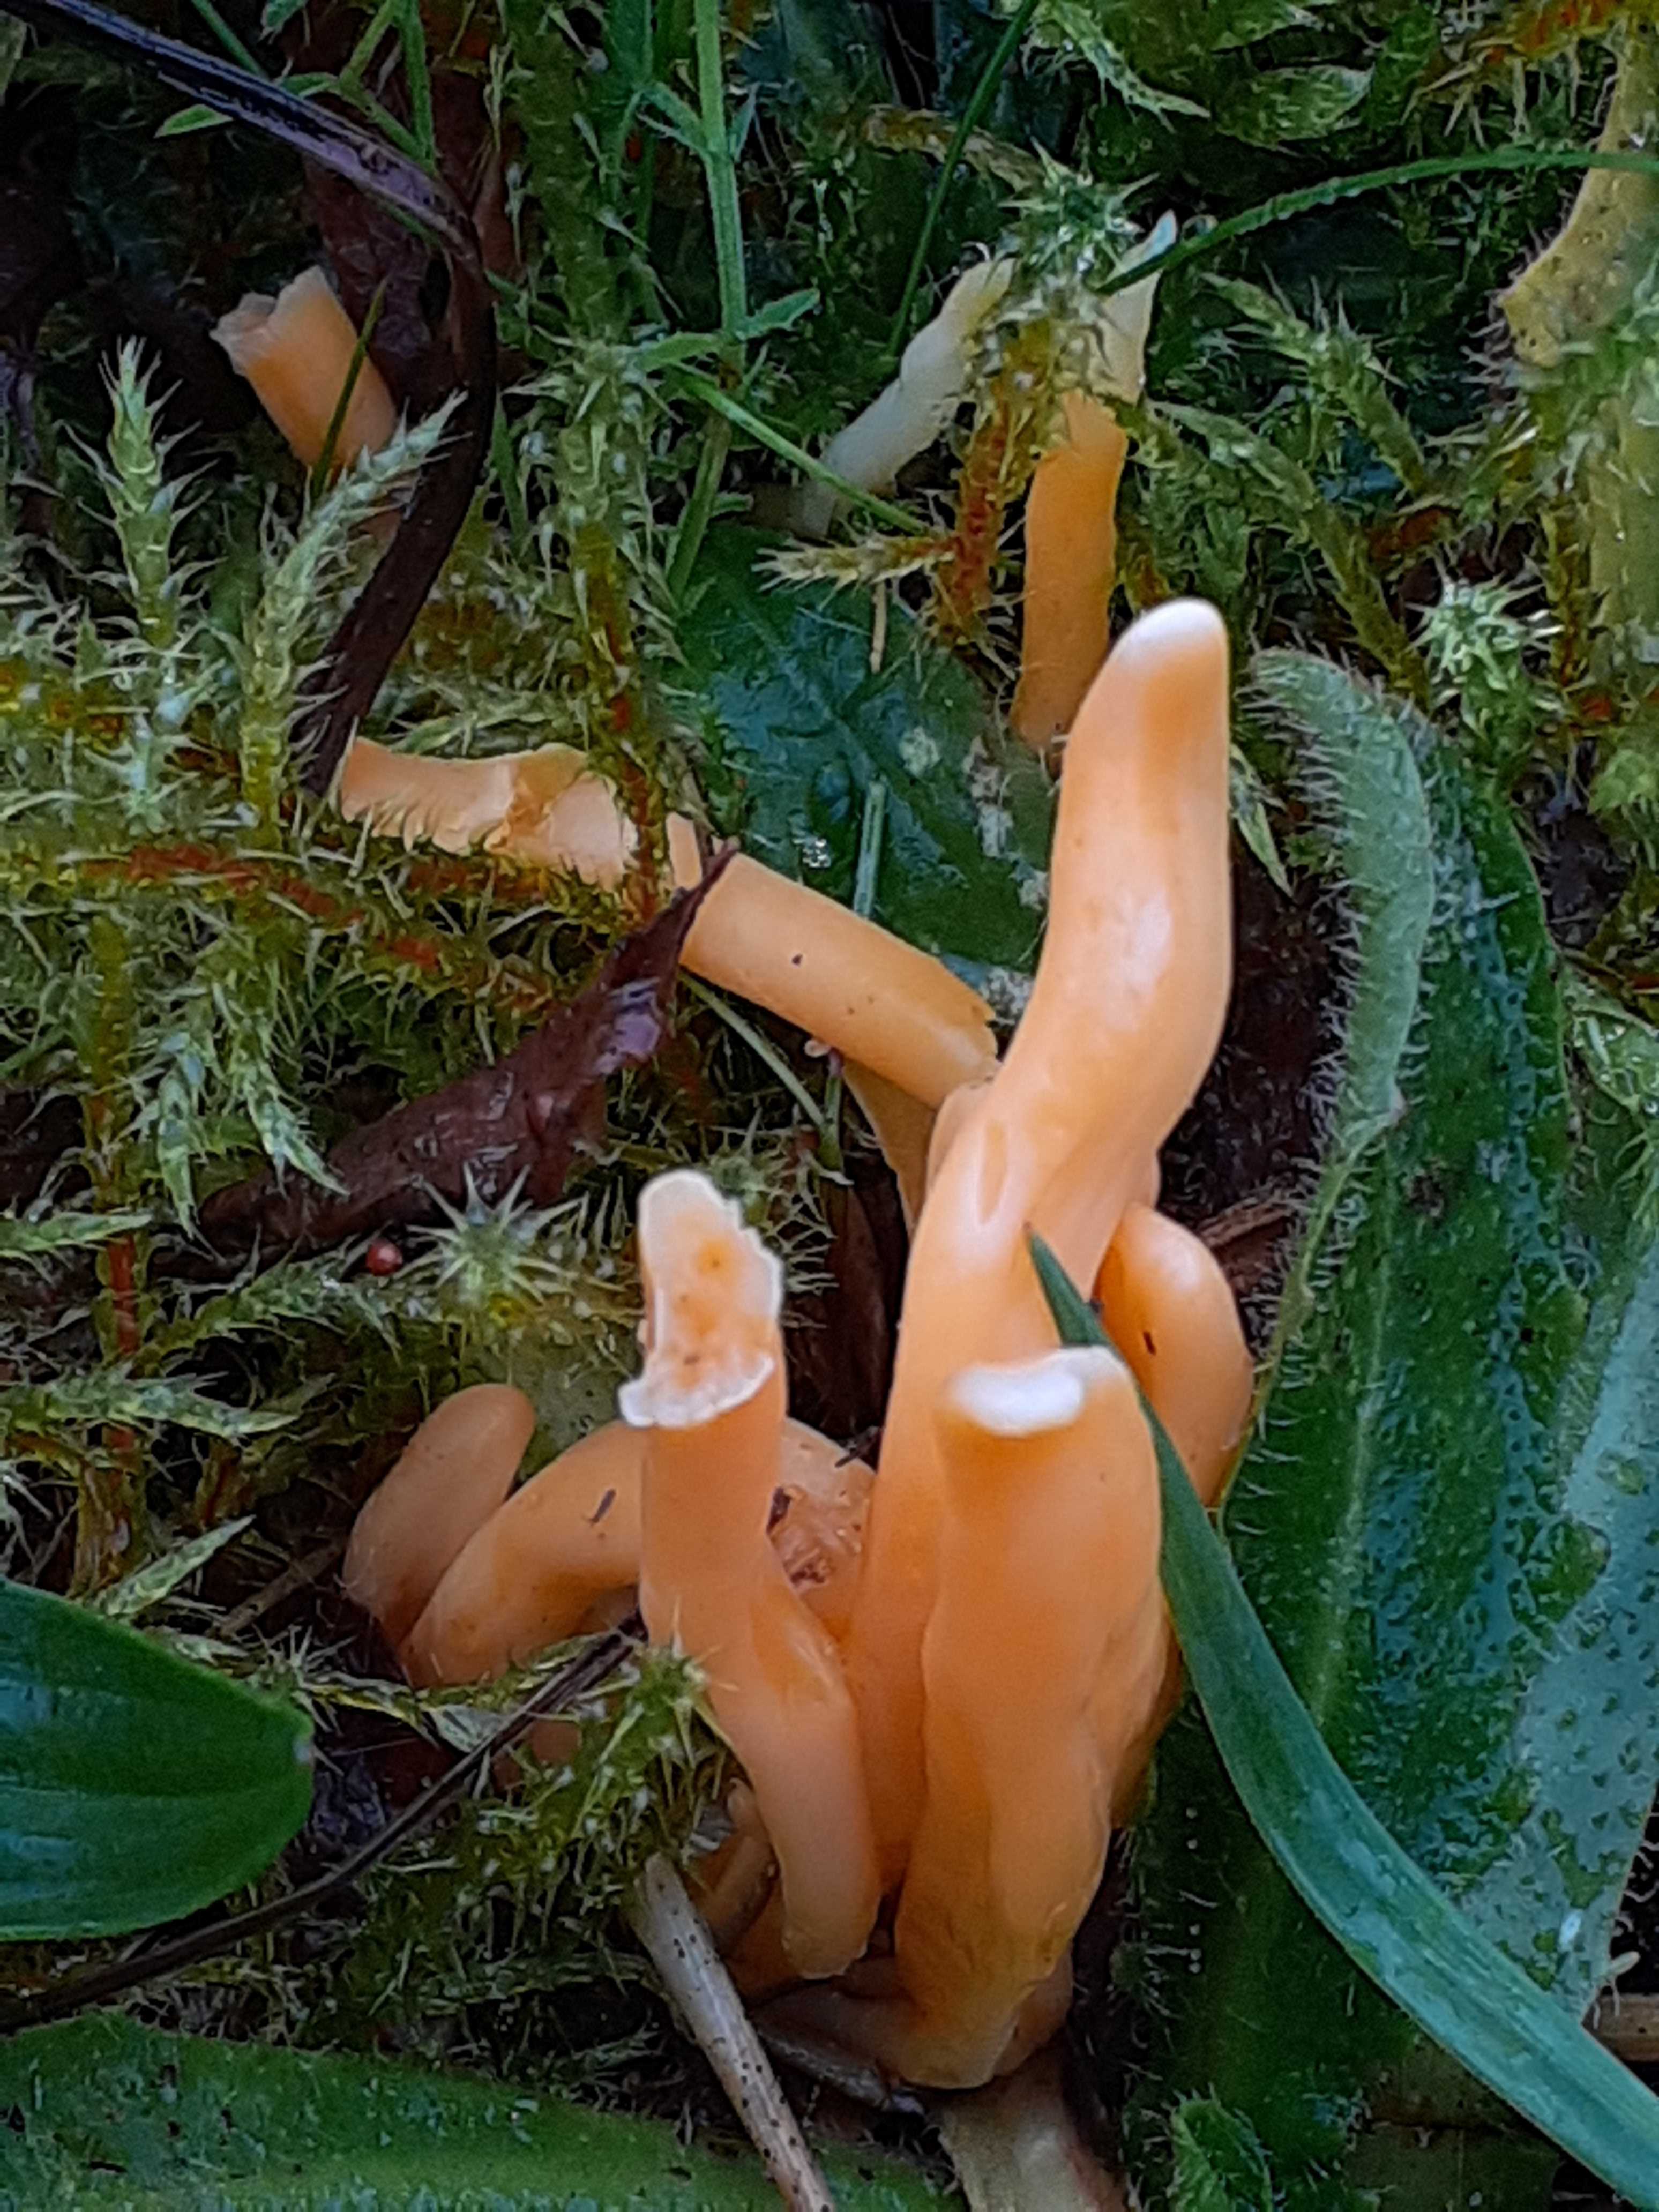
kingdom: Fungi
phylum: Basidiomycota
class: Agaricomycetes
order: Agaricales
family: Clavariaceae
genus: Clavulinopsis
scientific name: Clavulinopsis luteoalba
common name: abrikos-køllesvamp
